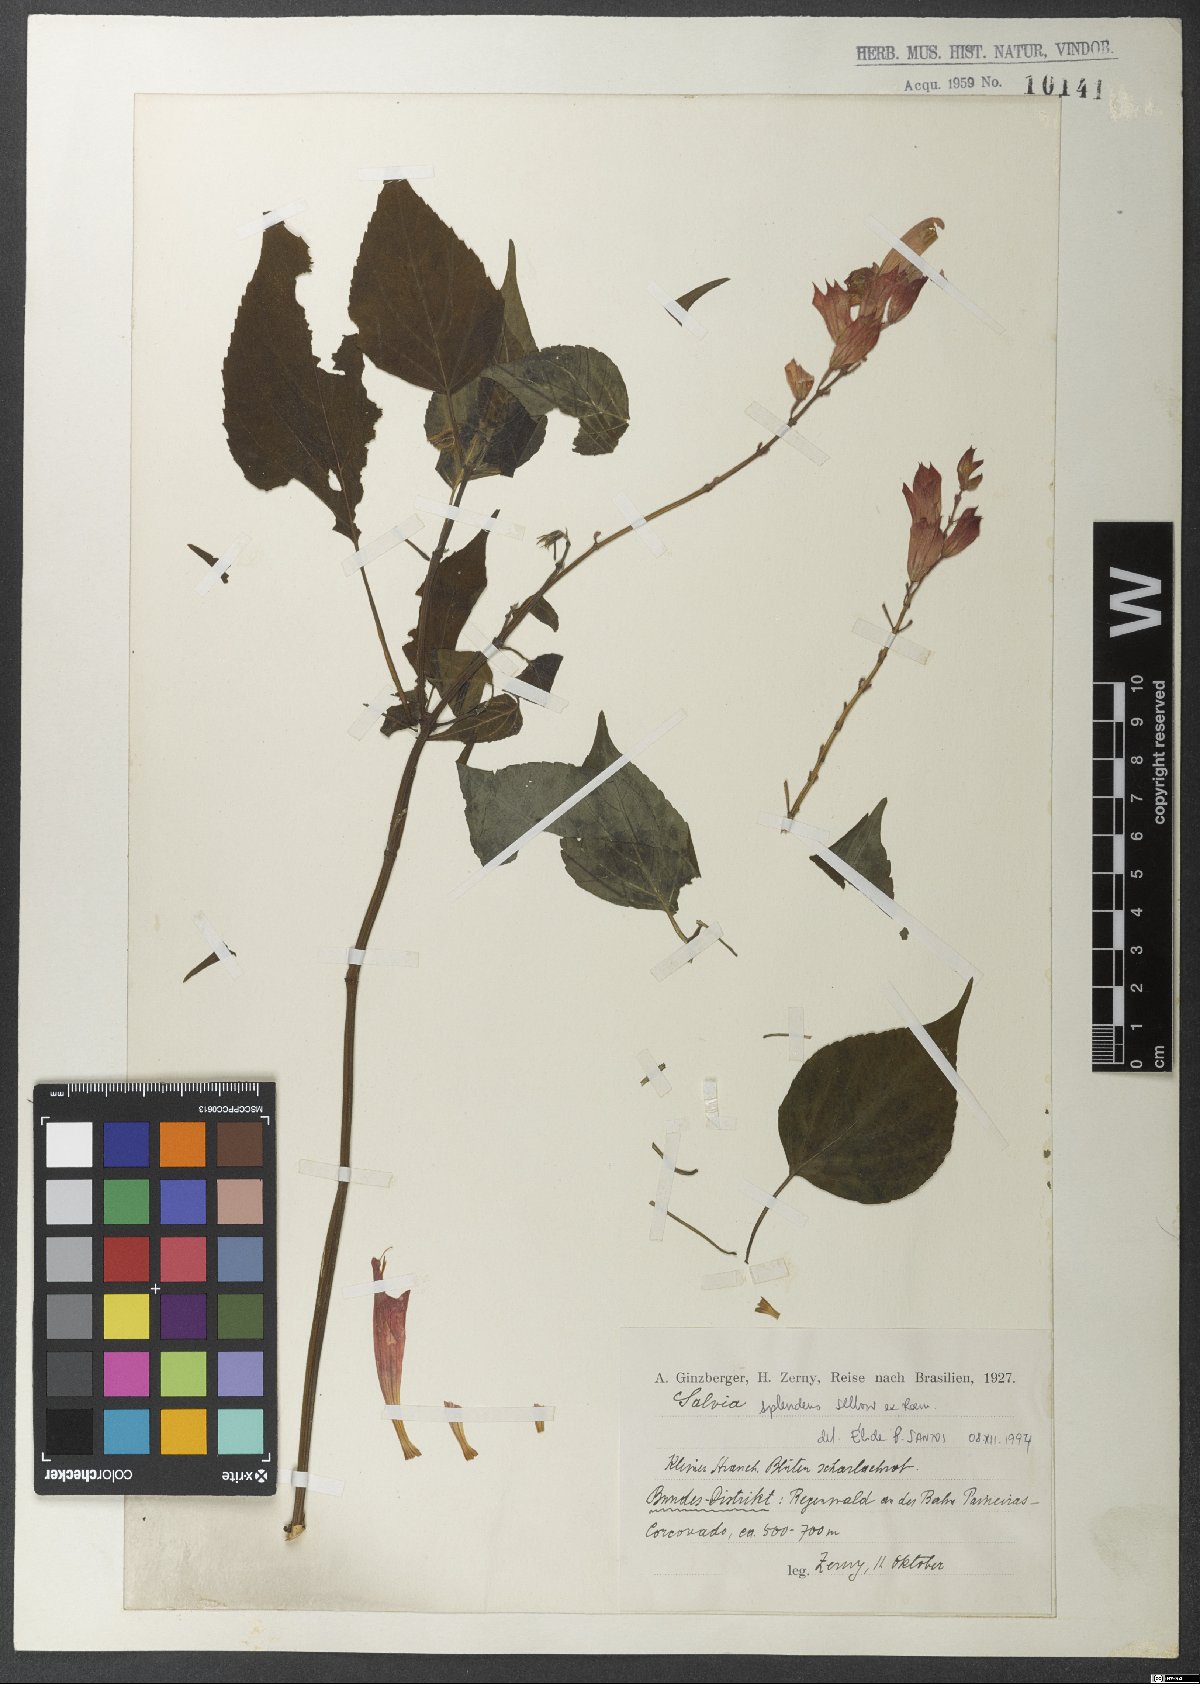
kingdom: Plantae
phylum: Tracheophyta
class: Magnoliopsida
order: Lamiales
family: Lamiaceae
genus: Salvia
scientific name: Salvia splendens
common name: Scarlet sage
